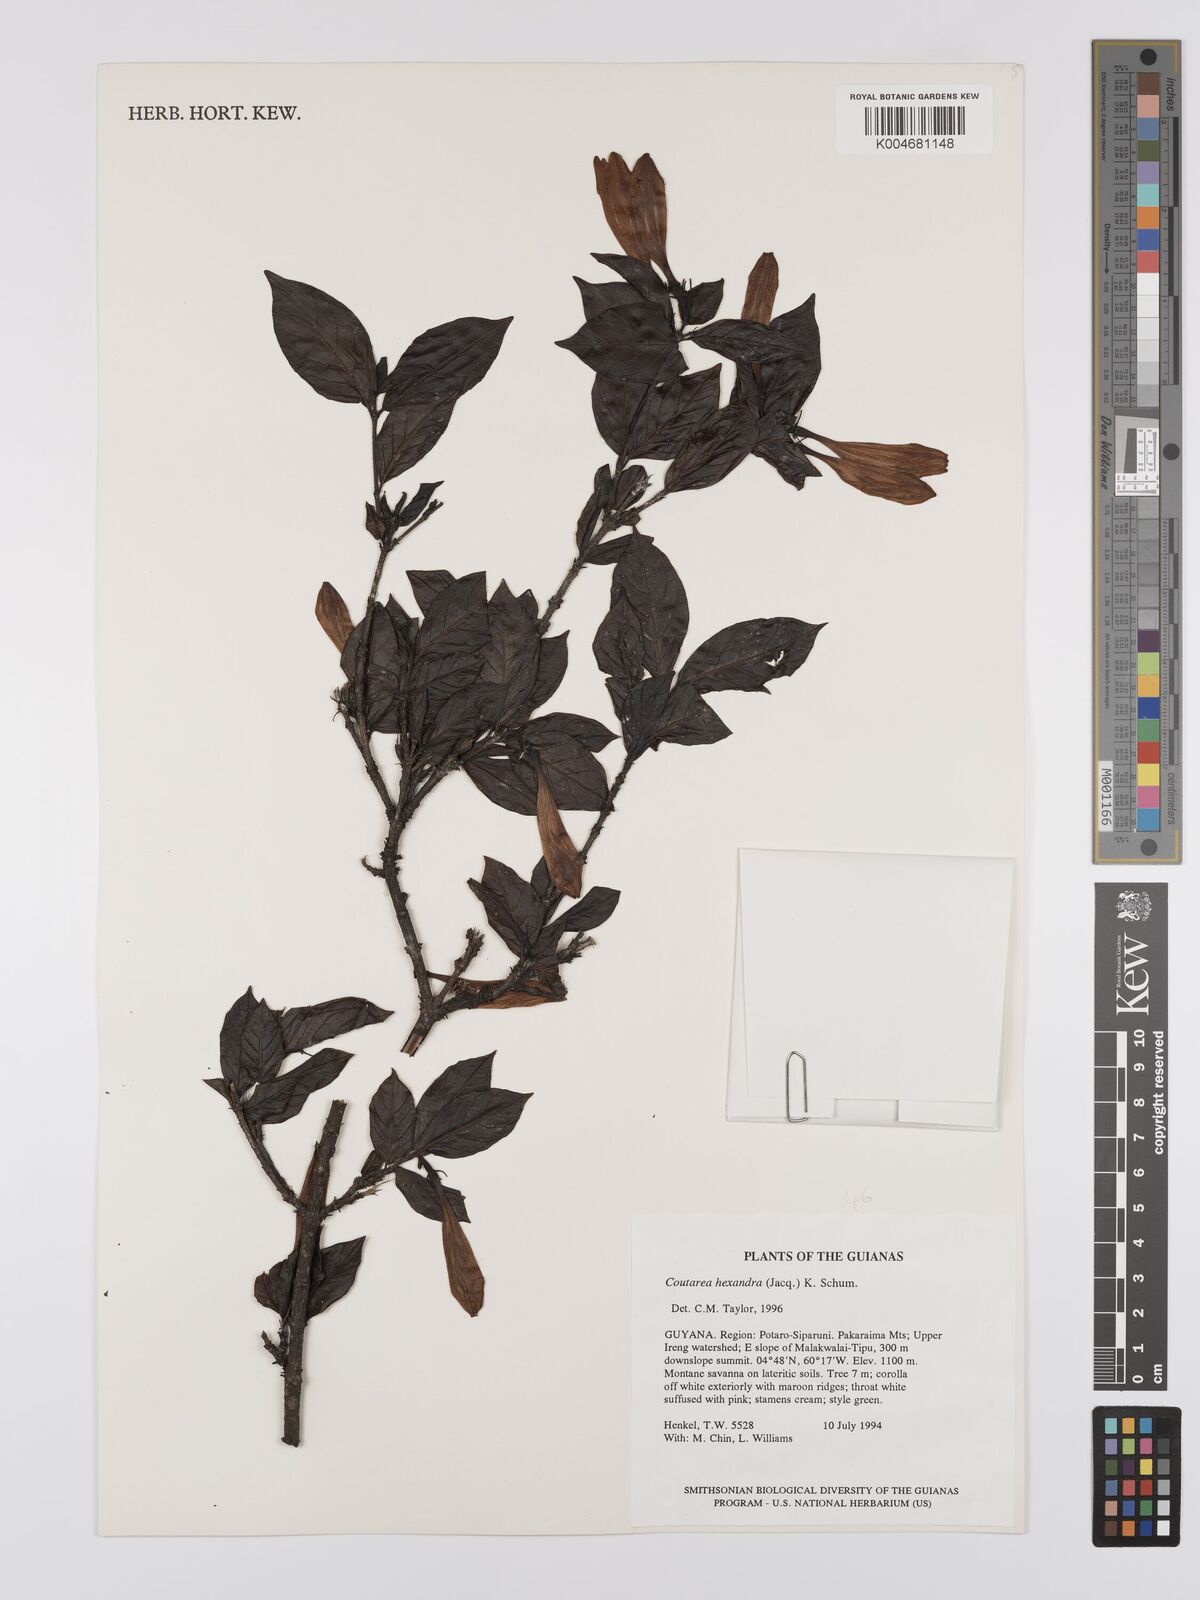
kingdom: Plantae
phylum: Tracheophyta
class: Magnoliopsida
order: Gentianales
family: Rubiaceae
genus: Coutarea
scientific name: Coutarea hexandra
